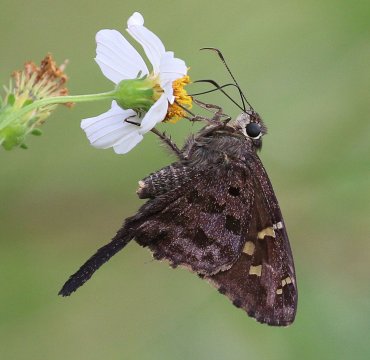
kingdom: Animalia
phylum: Arthropoda
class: Insecta
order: Lepidoptera
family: Hesperiidae
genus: Urbanus
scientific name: Urbanus dorantes
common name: Dorantes Longtail
